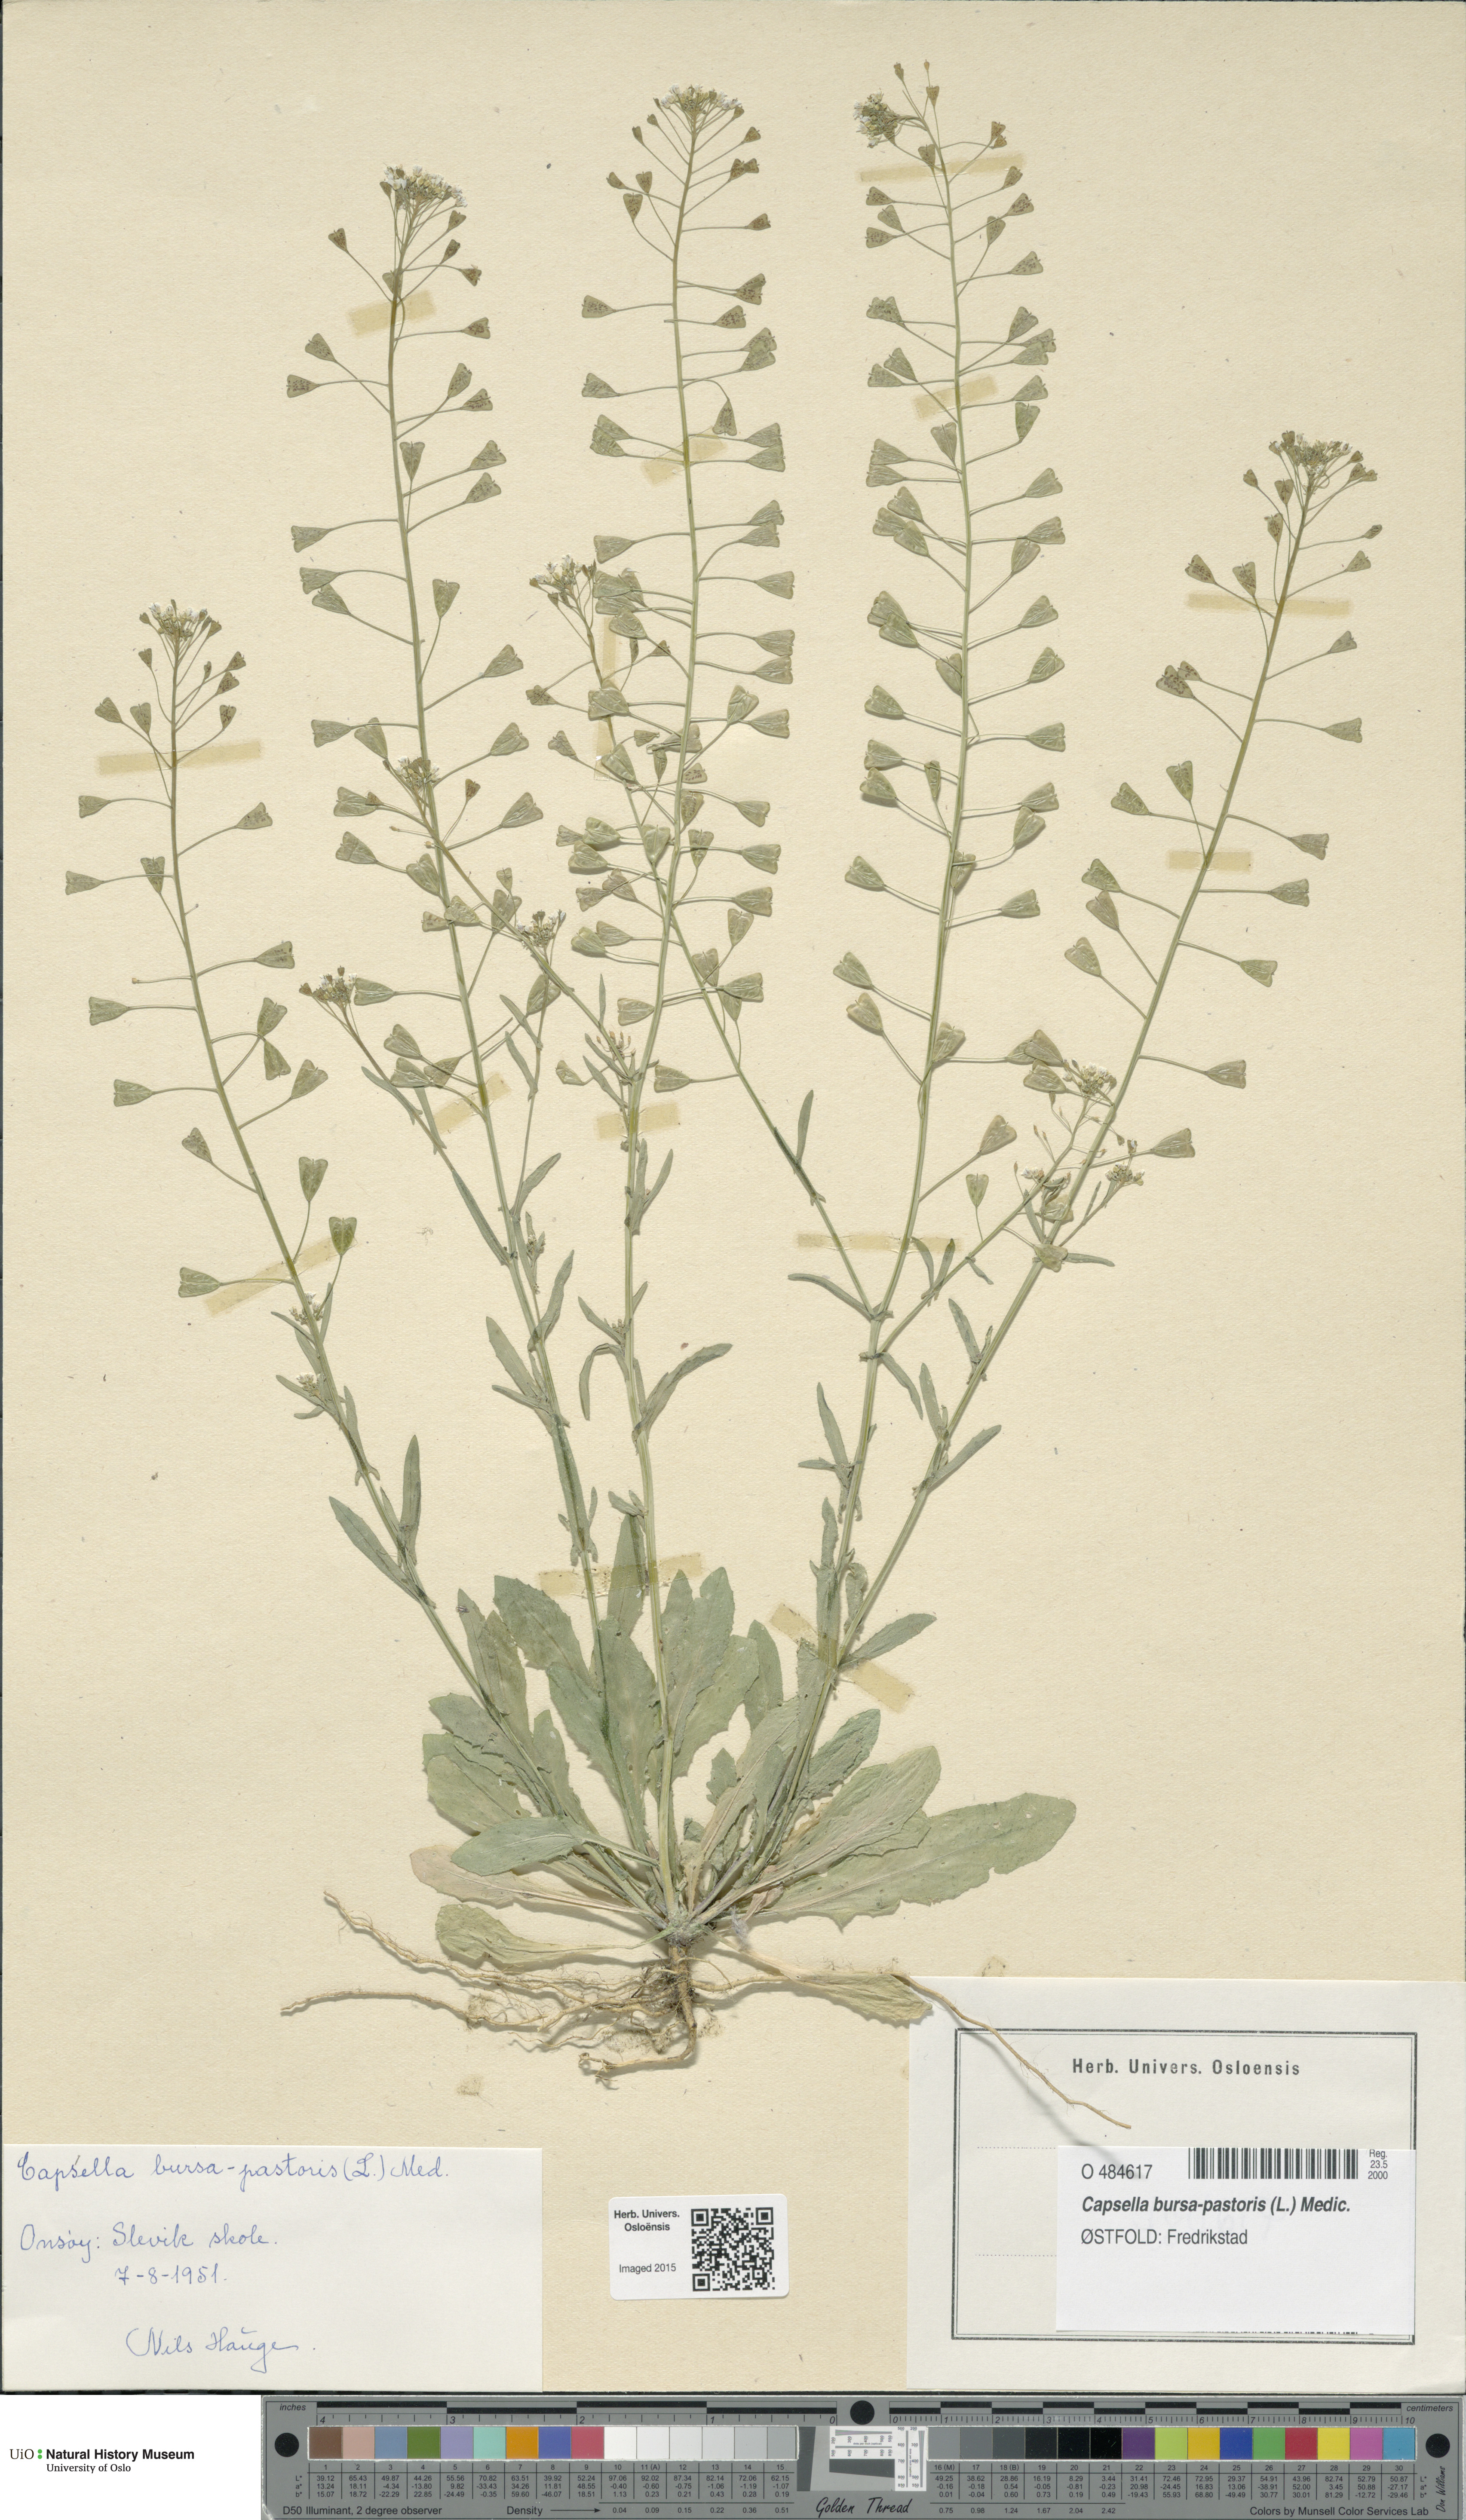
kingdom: Plantae
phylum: Tracheophyta
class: Magnoliopsida
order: Brassicales
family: Brassicaceae
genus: Capsella
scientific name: Capsella bursa-pastoris
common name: Shepherd's purse
